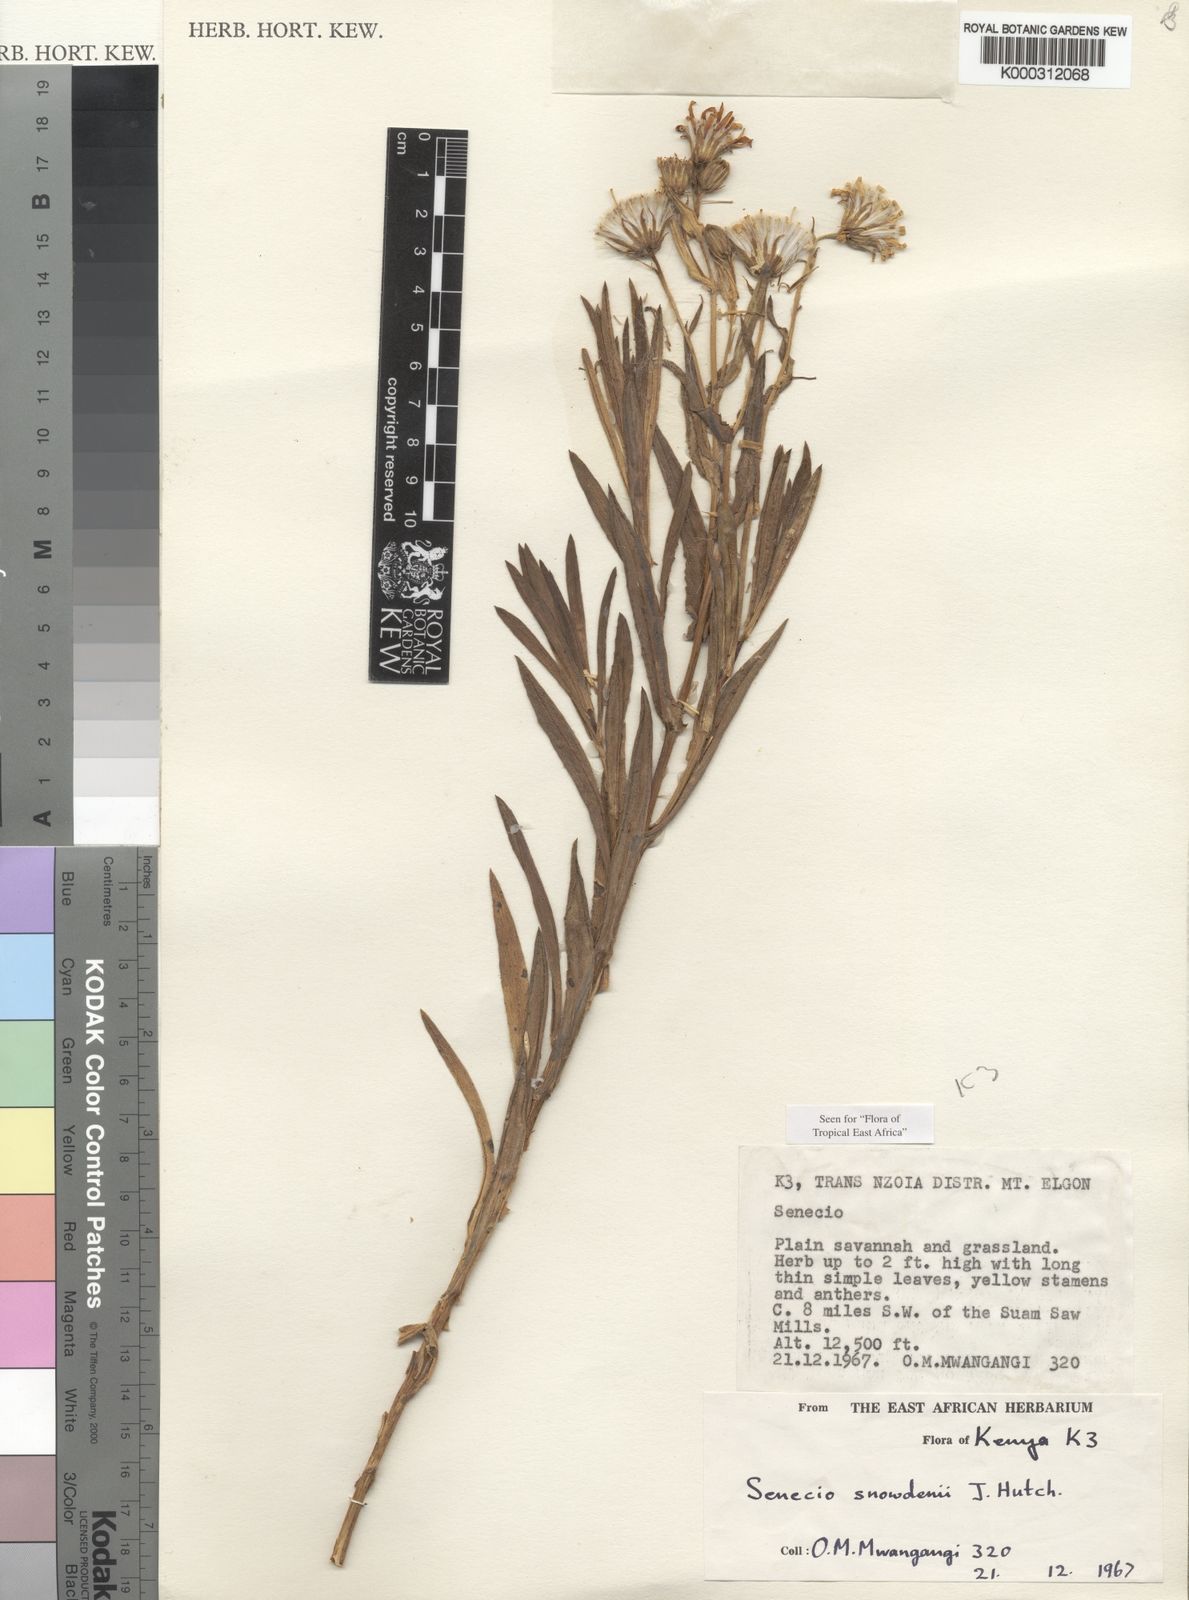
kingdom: Plantae
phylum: Tracheophyta
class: Magnoliopsida
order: Asterales
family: Asteraceae
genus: Senecio
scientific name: Senecio snowdenii
